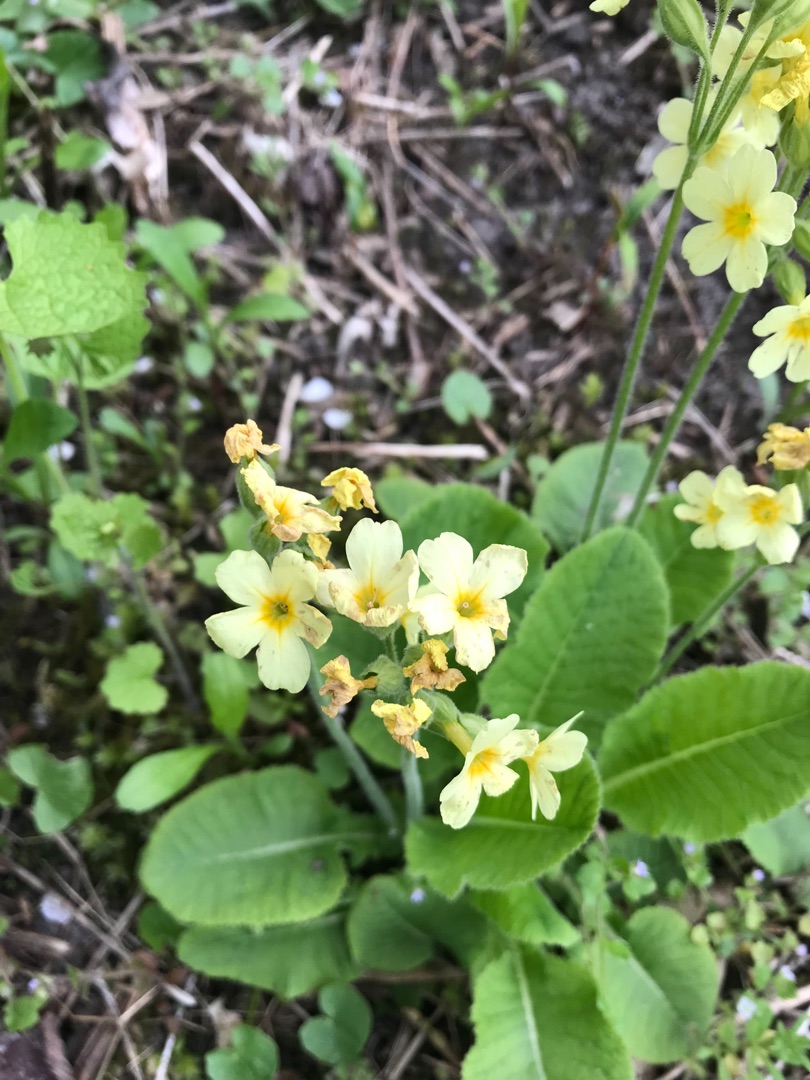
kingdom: Plantae
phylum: Tracheophyta
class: Magnoliopsida
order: Ericales
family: Primulaceae
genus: Primula
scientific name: Primula elatior
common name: Fladkravet kodriver
